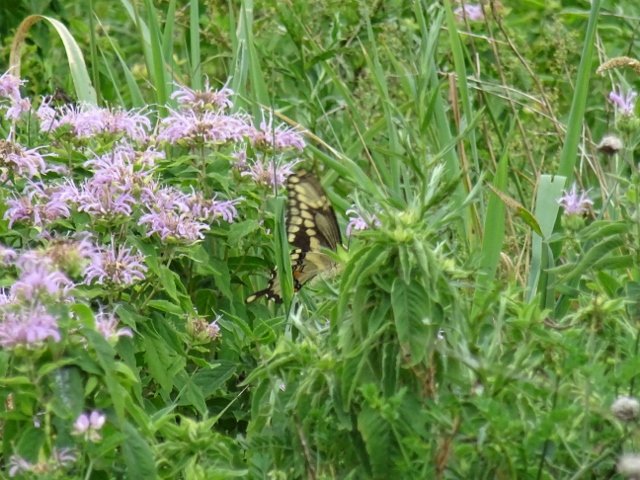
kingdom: Animalia
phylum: Arthropoda
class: Insecta
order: Lepidoptera
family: Papilionidae
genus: Papilio
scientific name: Papilio cresphontes
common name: Eastern Giant Swallowtail
